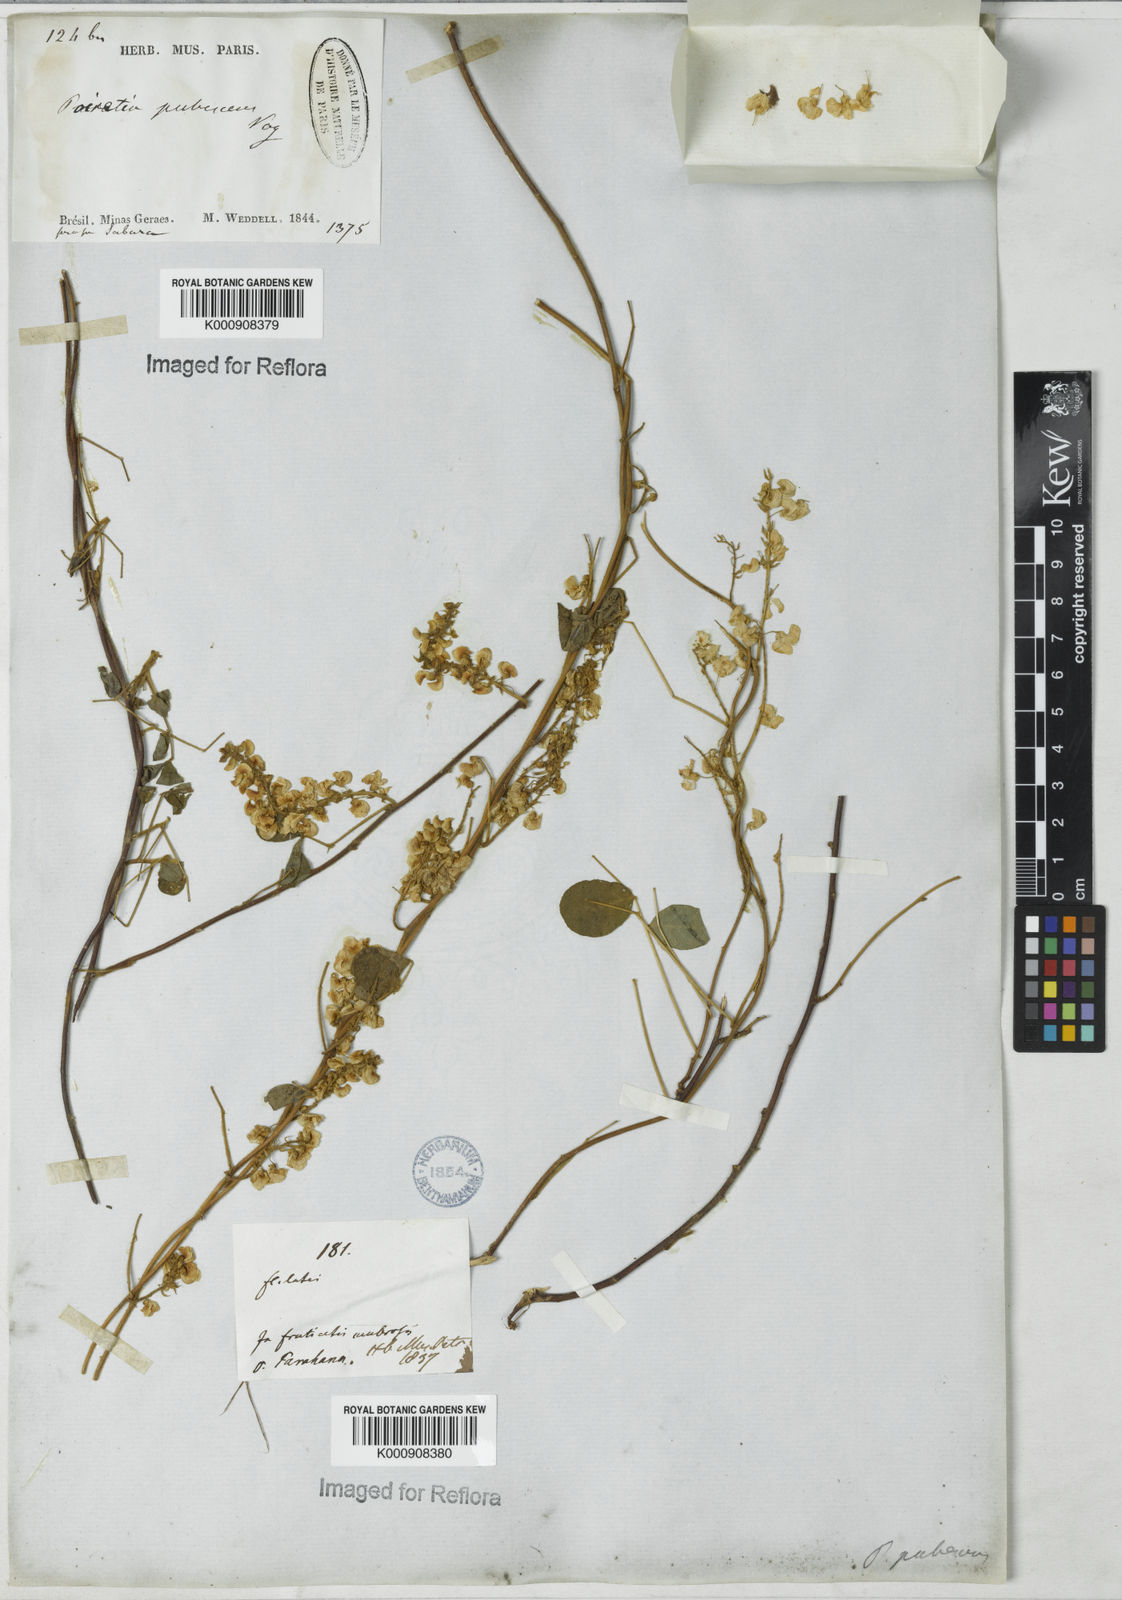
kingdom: Plantae
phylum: Tracheophyta
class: Magnoliopsida
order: Fabales
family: Fabaceae
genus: Poiretia
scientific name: Poiretia punctata
